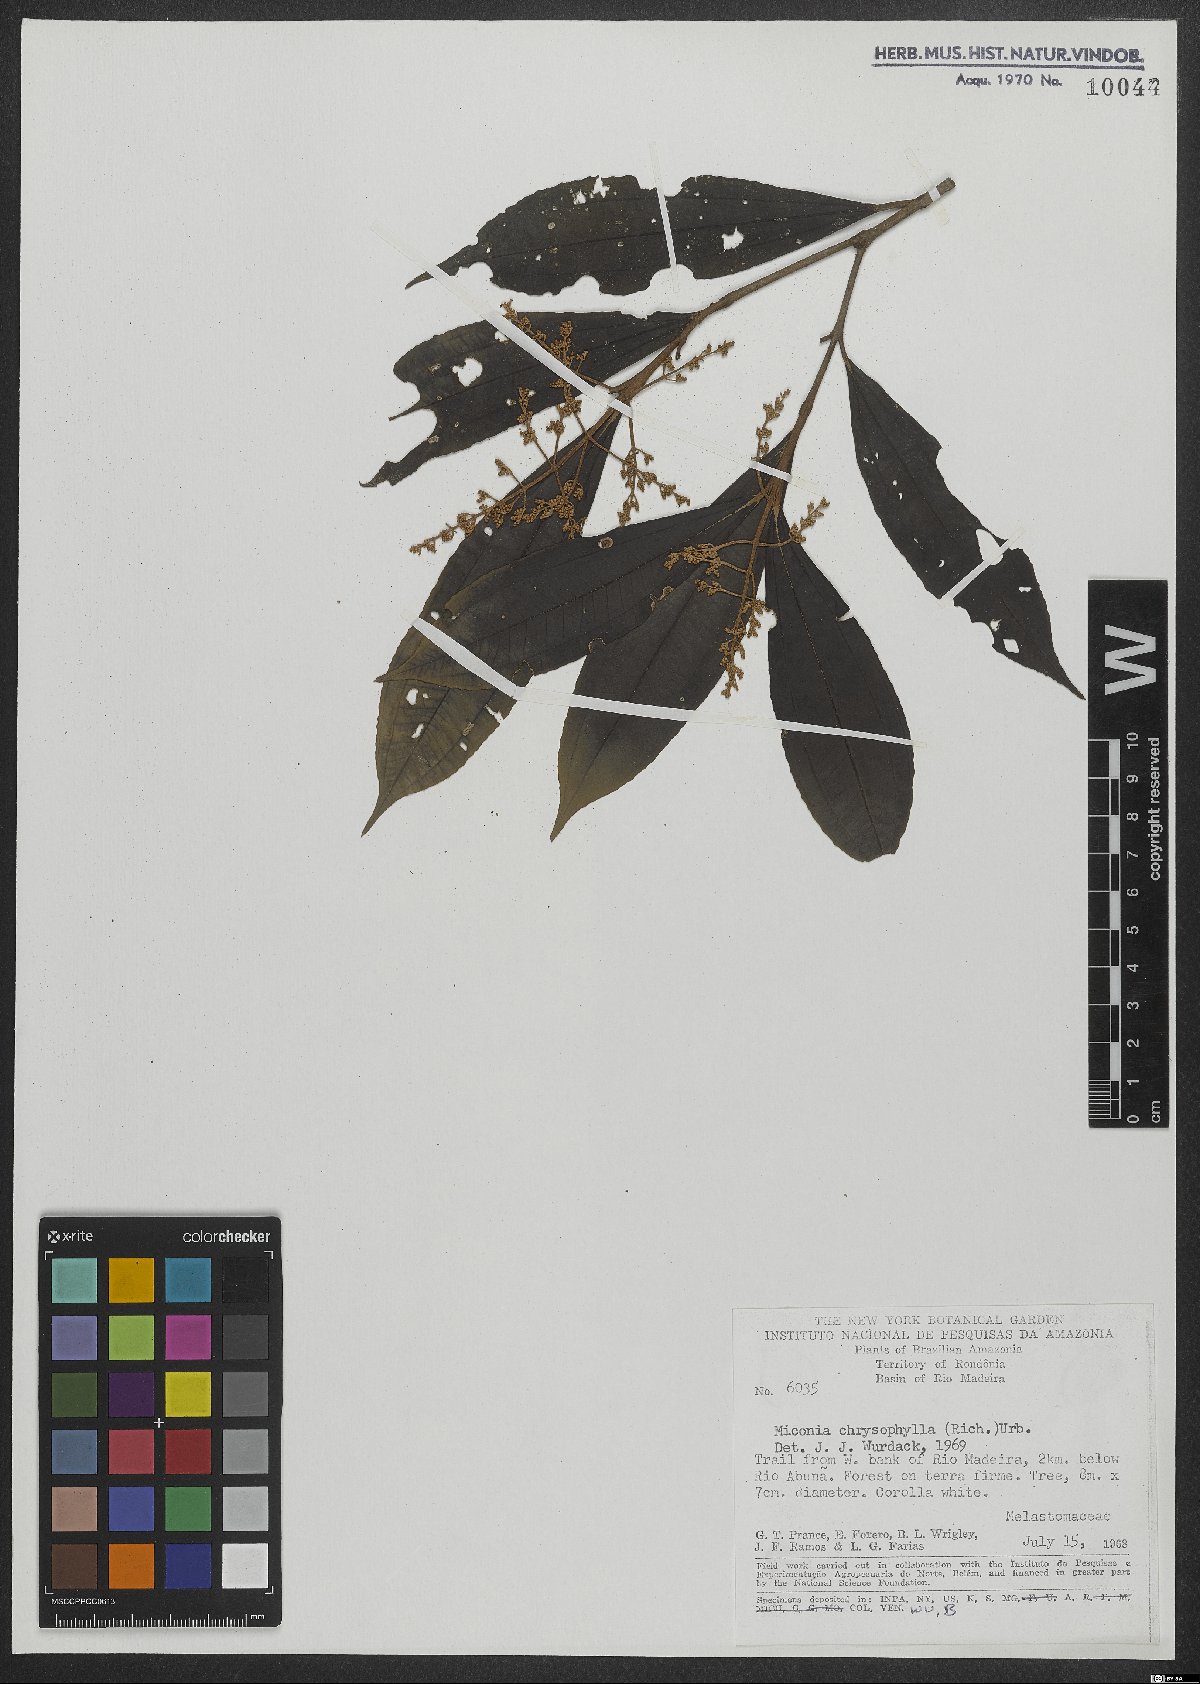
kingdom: Plantae
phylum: Tracheophyta
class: Magnoliopsida
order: Myrtales
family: Melastomataceae
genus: Miconia
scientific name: Miconia chrysophylla
